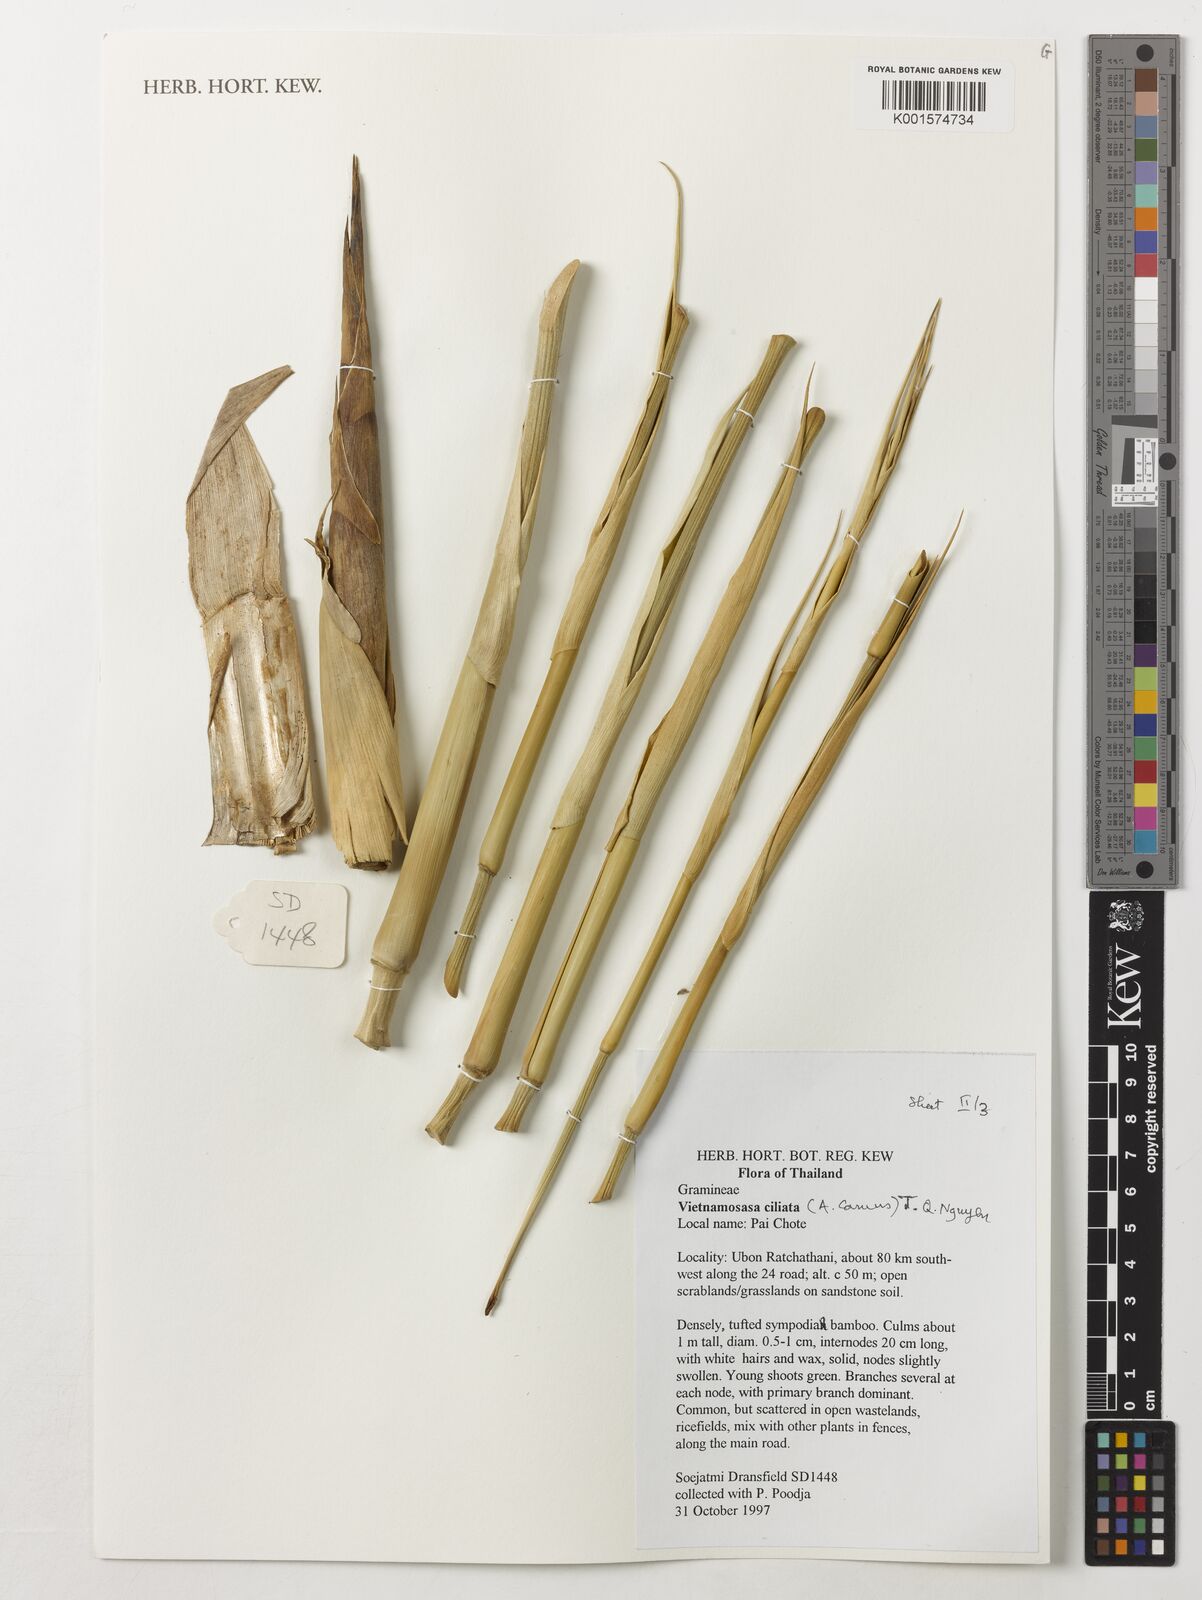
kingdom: Plantae
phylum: Tracheophyta
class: Liliopsida
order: Poales
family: Poaceae
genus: Vietnamosasa
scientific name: Vietnamosasa ciliata
